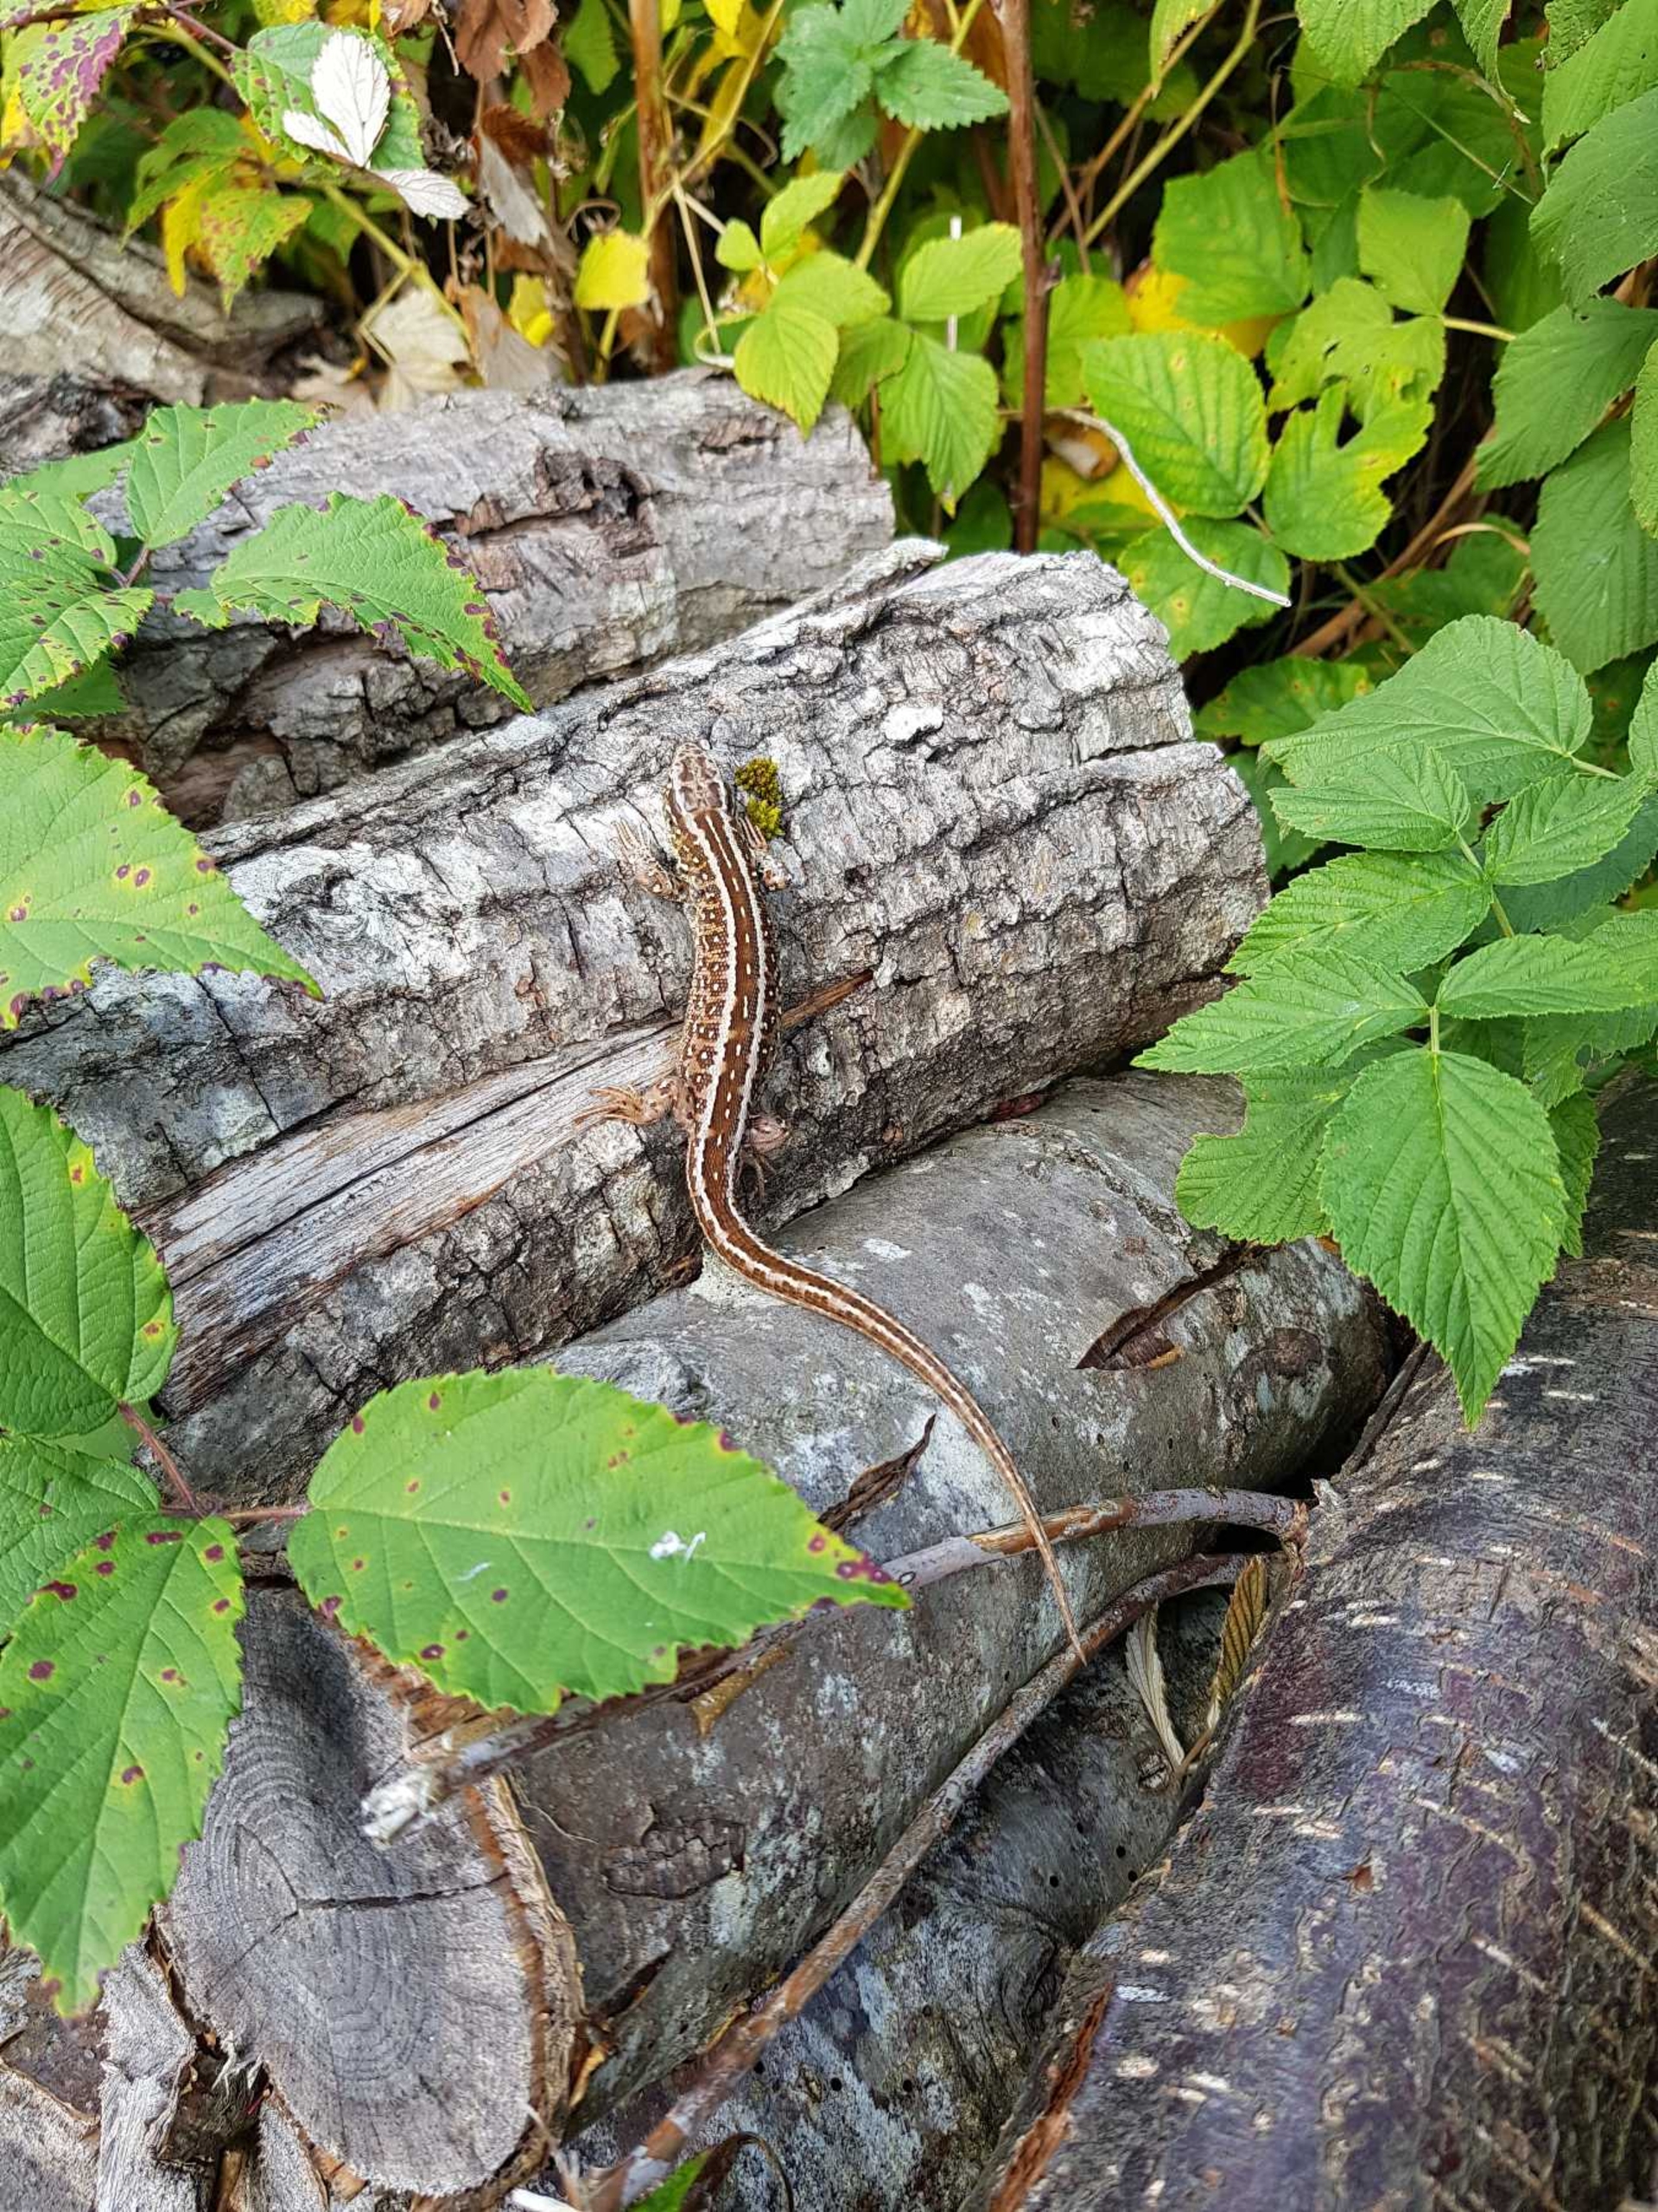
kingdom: Animalia
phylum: Chordata
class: Squamata
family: Lacertidae
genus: Lacerta
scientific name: Lacerta agilis
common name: Markfirben
